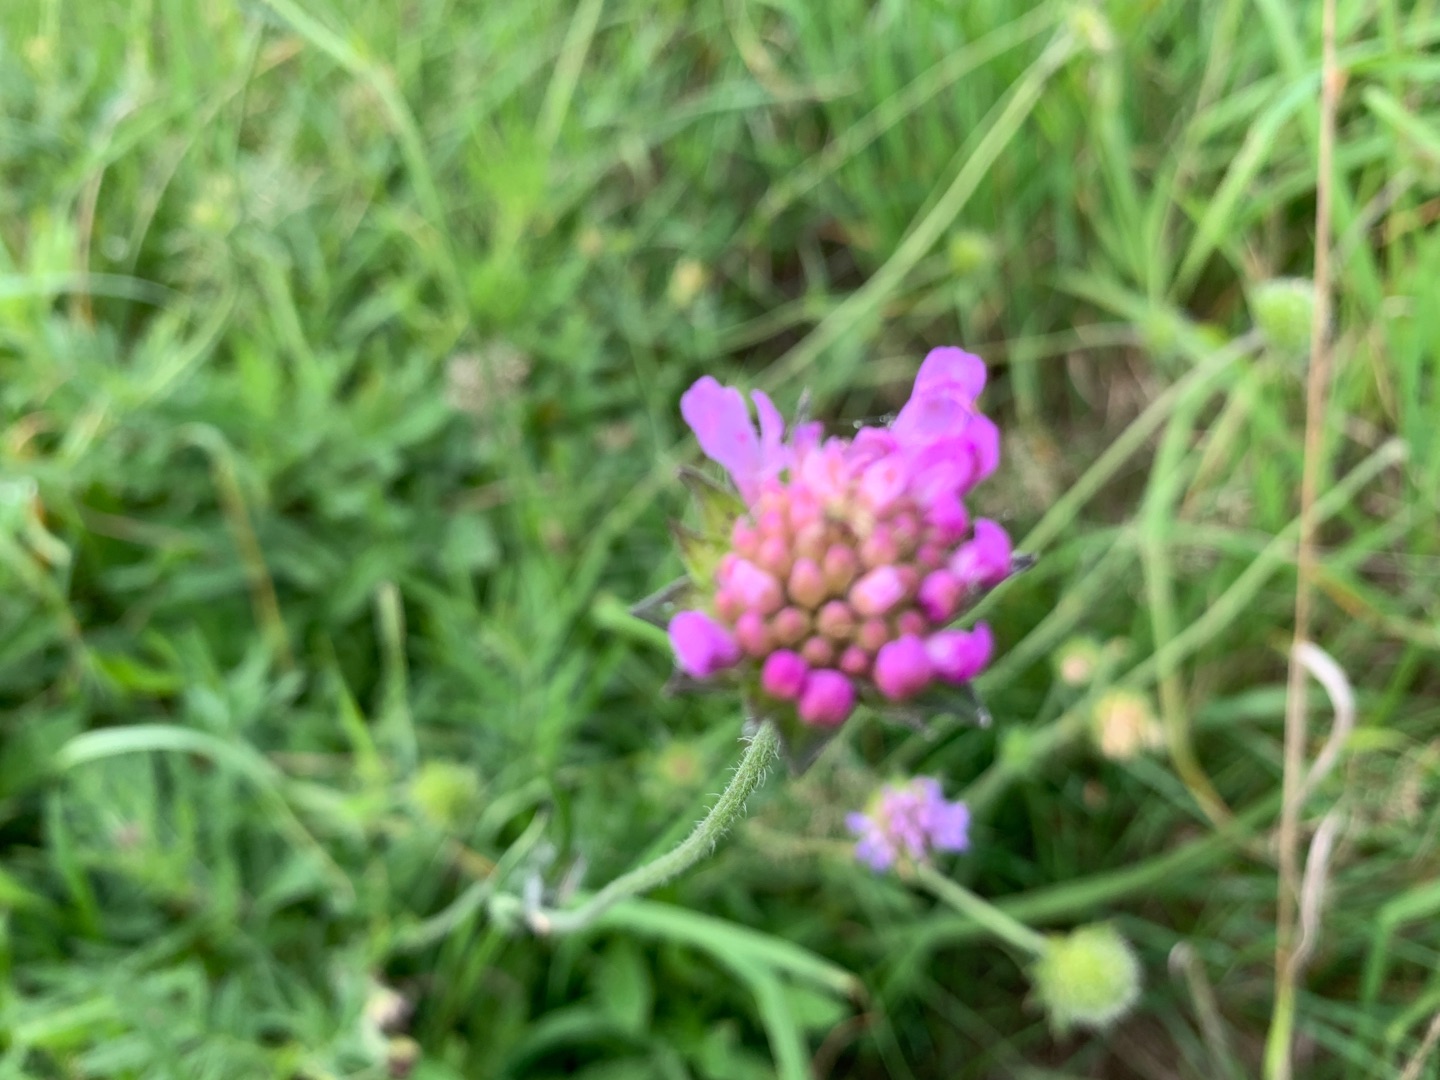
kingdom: Plantae
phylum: Tracheophyta
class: Magnoliopsida
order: Dipsacales
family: Caprifoliaceae
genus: Knautia
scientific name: Knautia arvensis
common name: Blåhat
